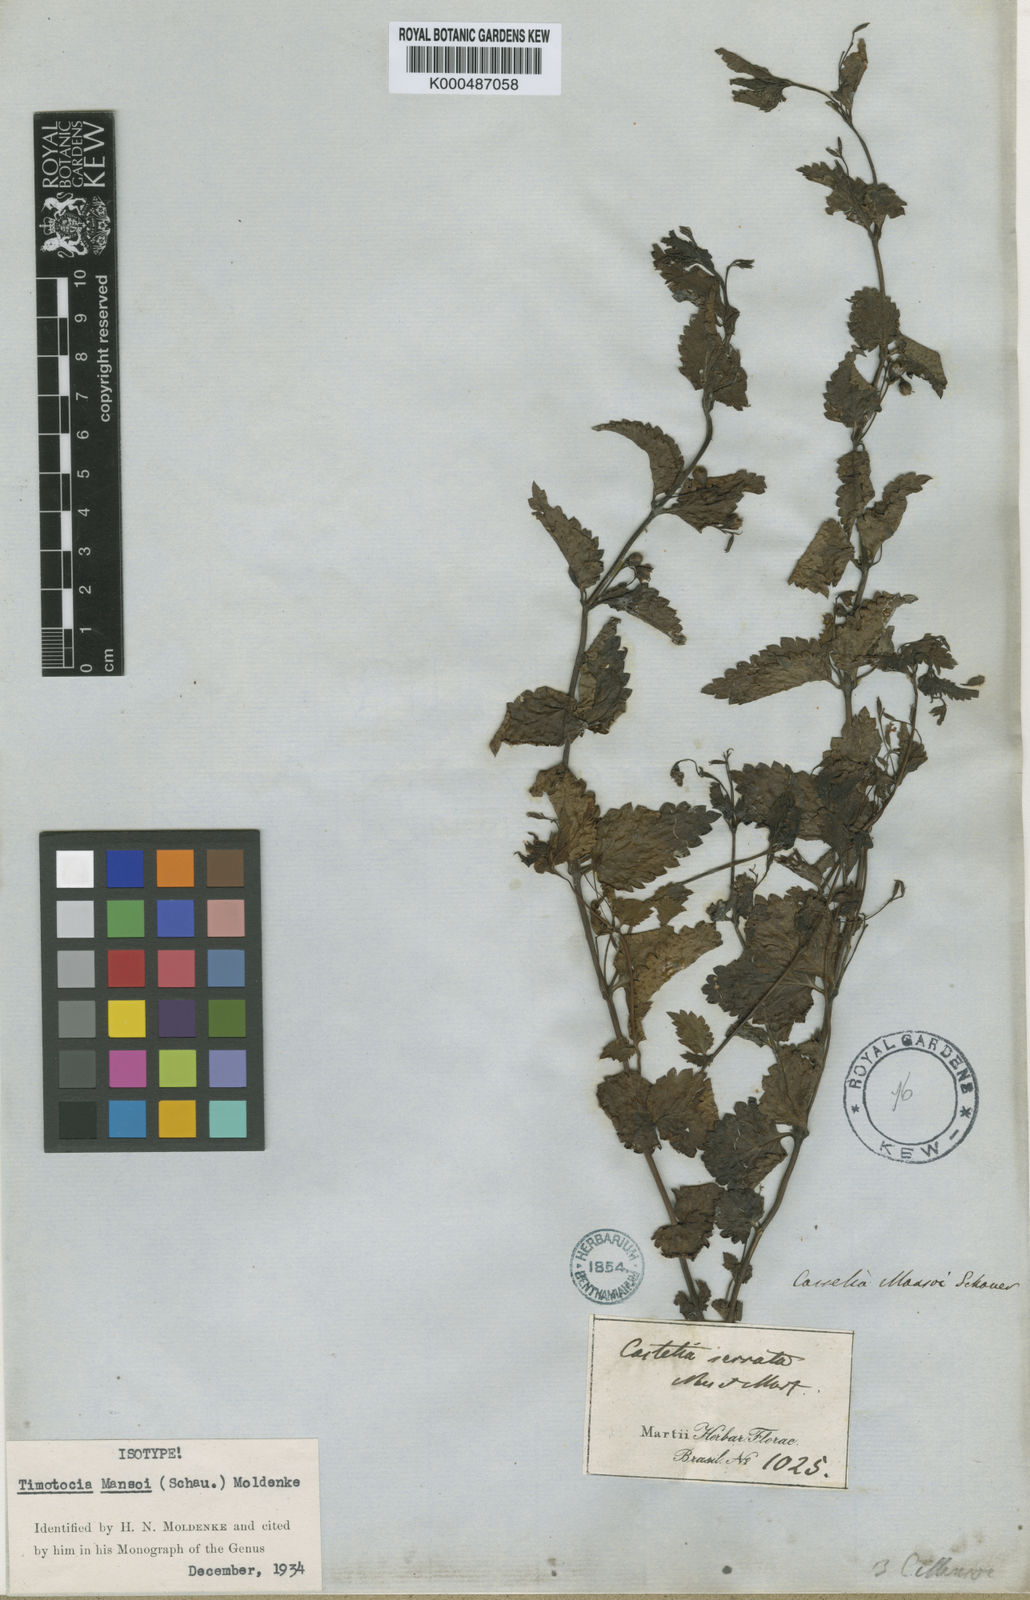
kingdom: Plantae
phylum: Tracheophyta
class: Magnoliopsida
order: Lamiales
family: Verbenaceae
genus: Casselia
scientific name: Casselia chamaedryfolia
